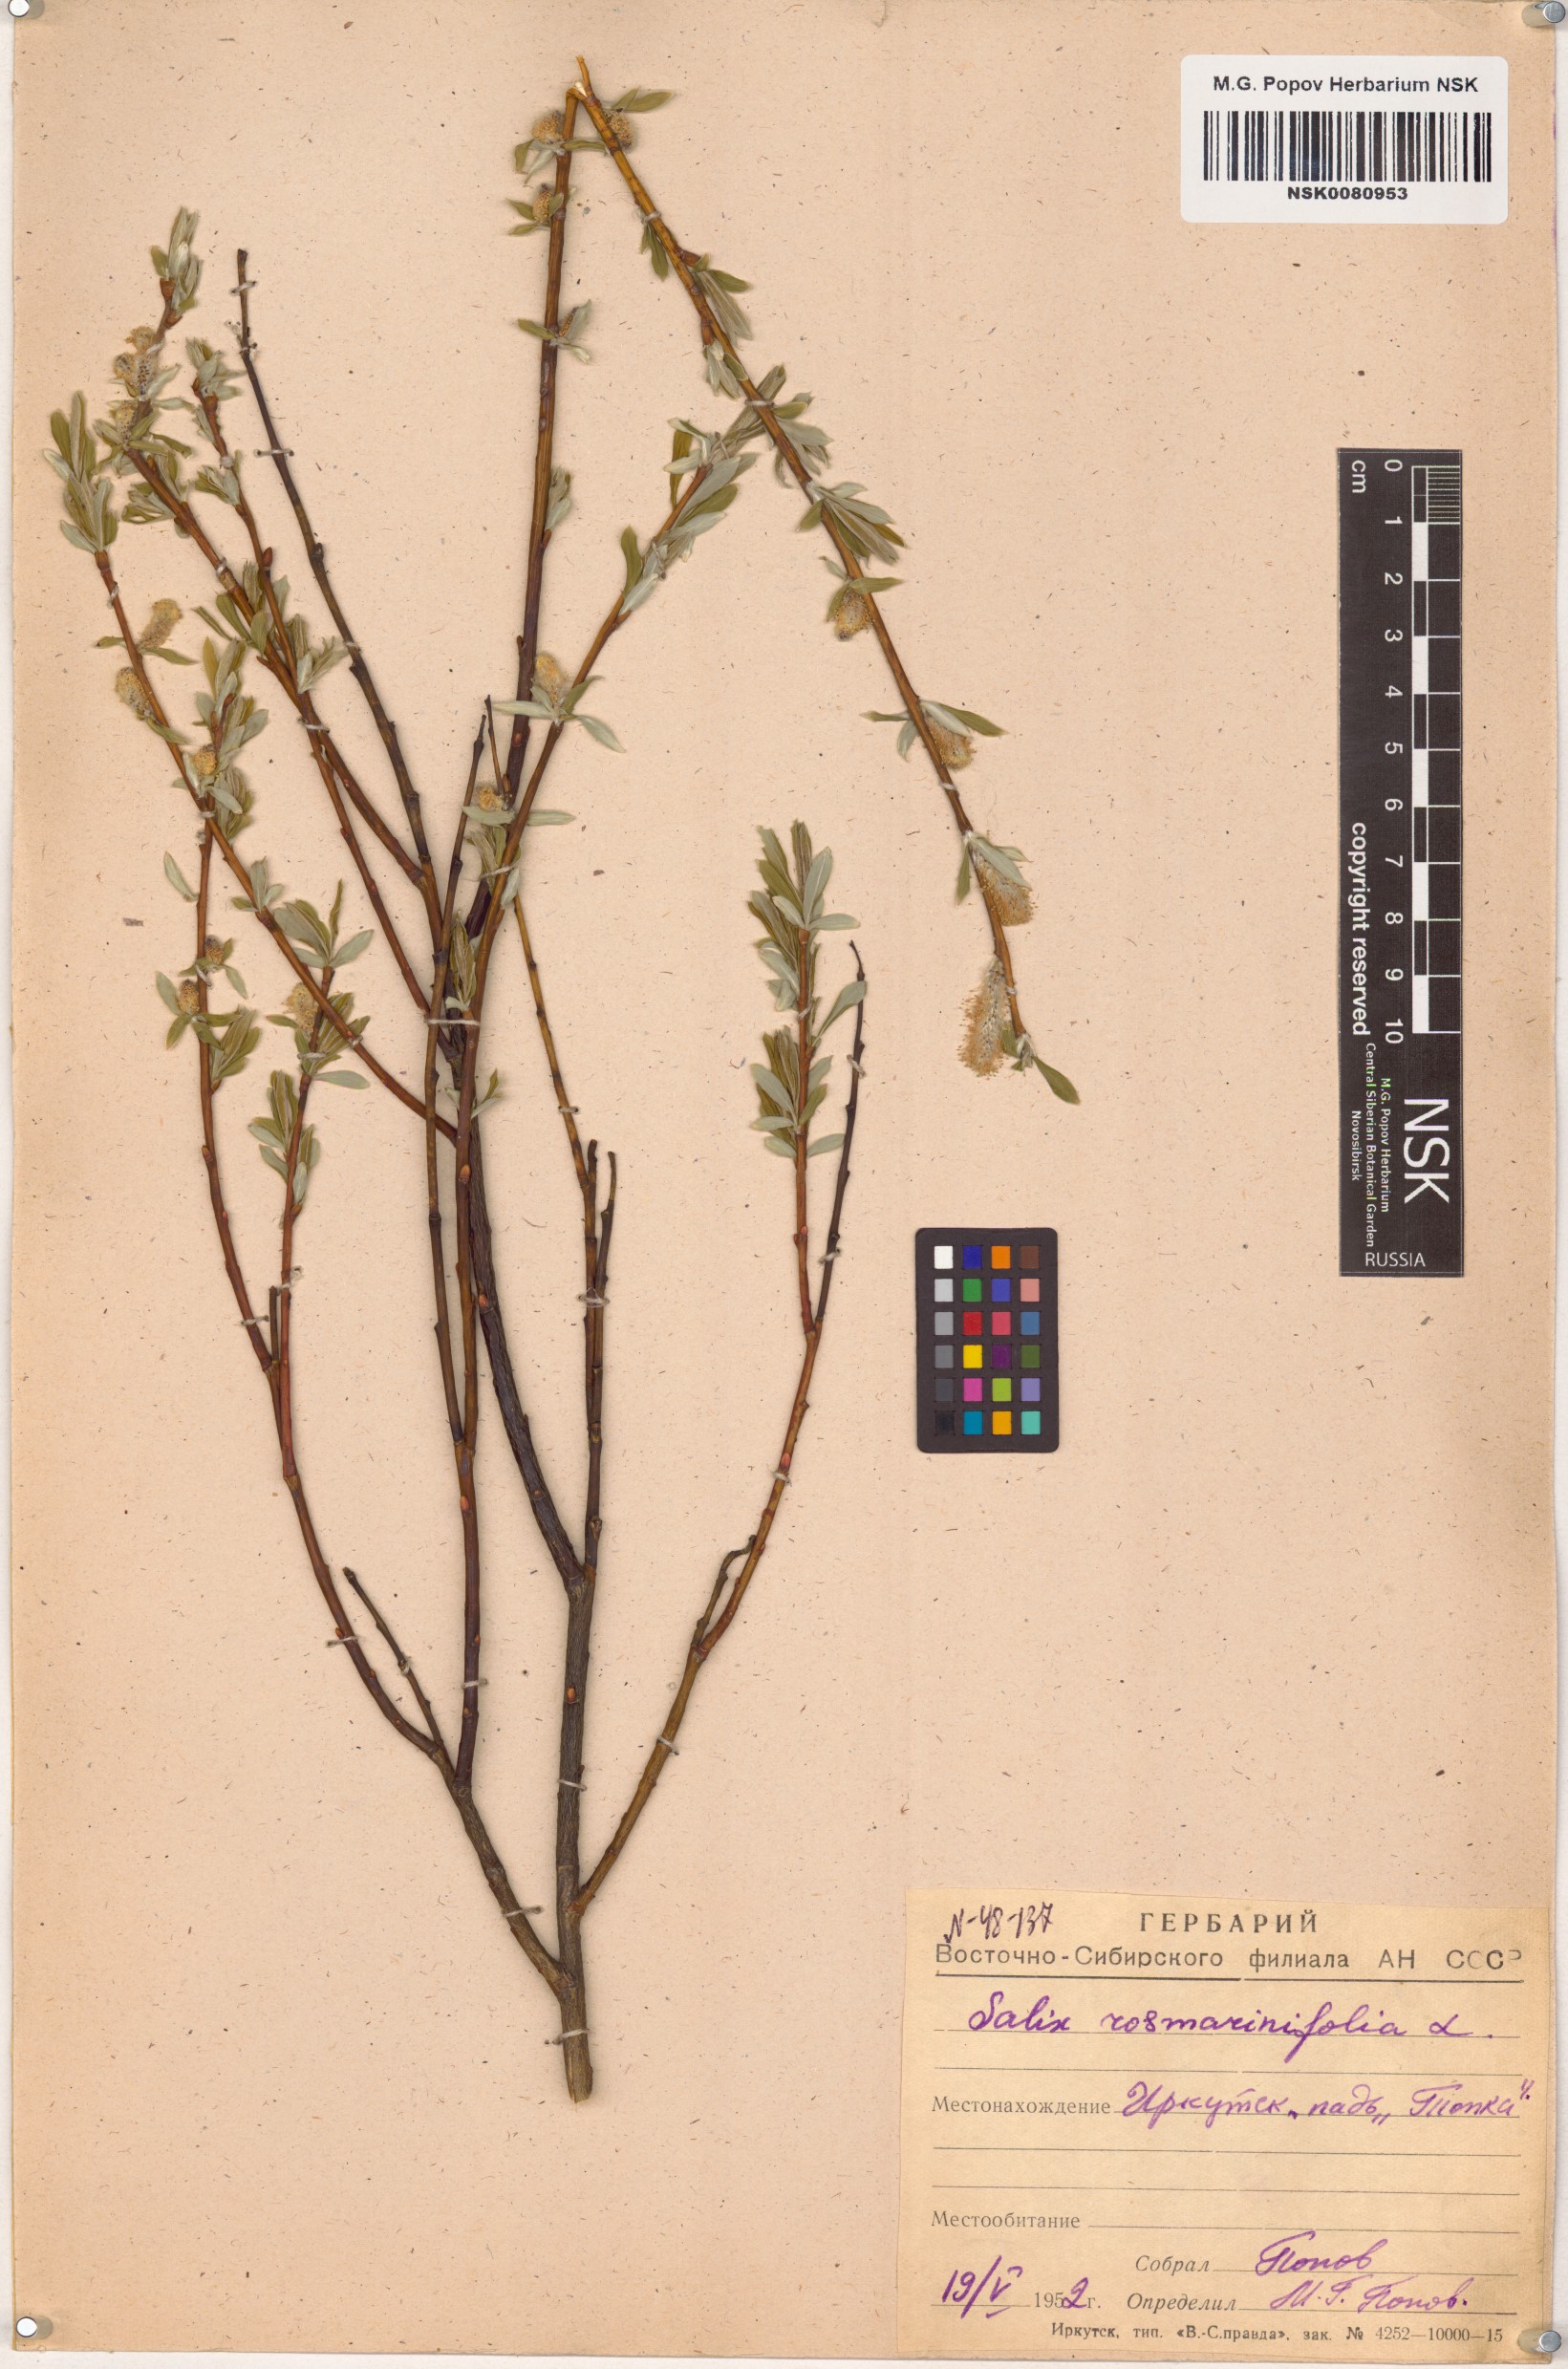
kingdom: Plantae
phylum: Tracheophyta
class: Magnoliopsida
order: Malpighiales
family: Salicaceae
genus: Salix
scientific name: Salix rosmarinifolia
